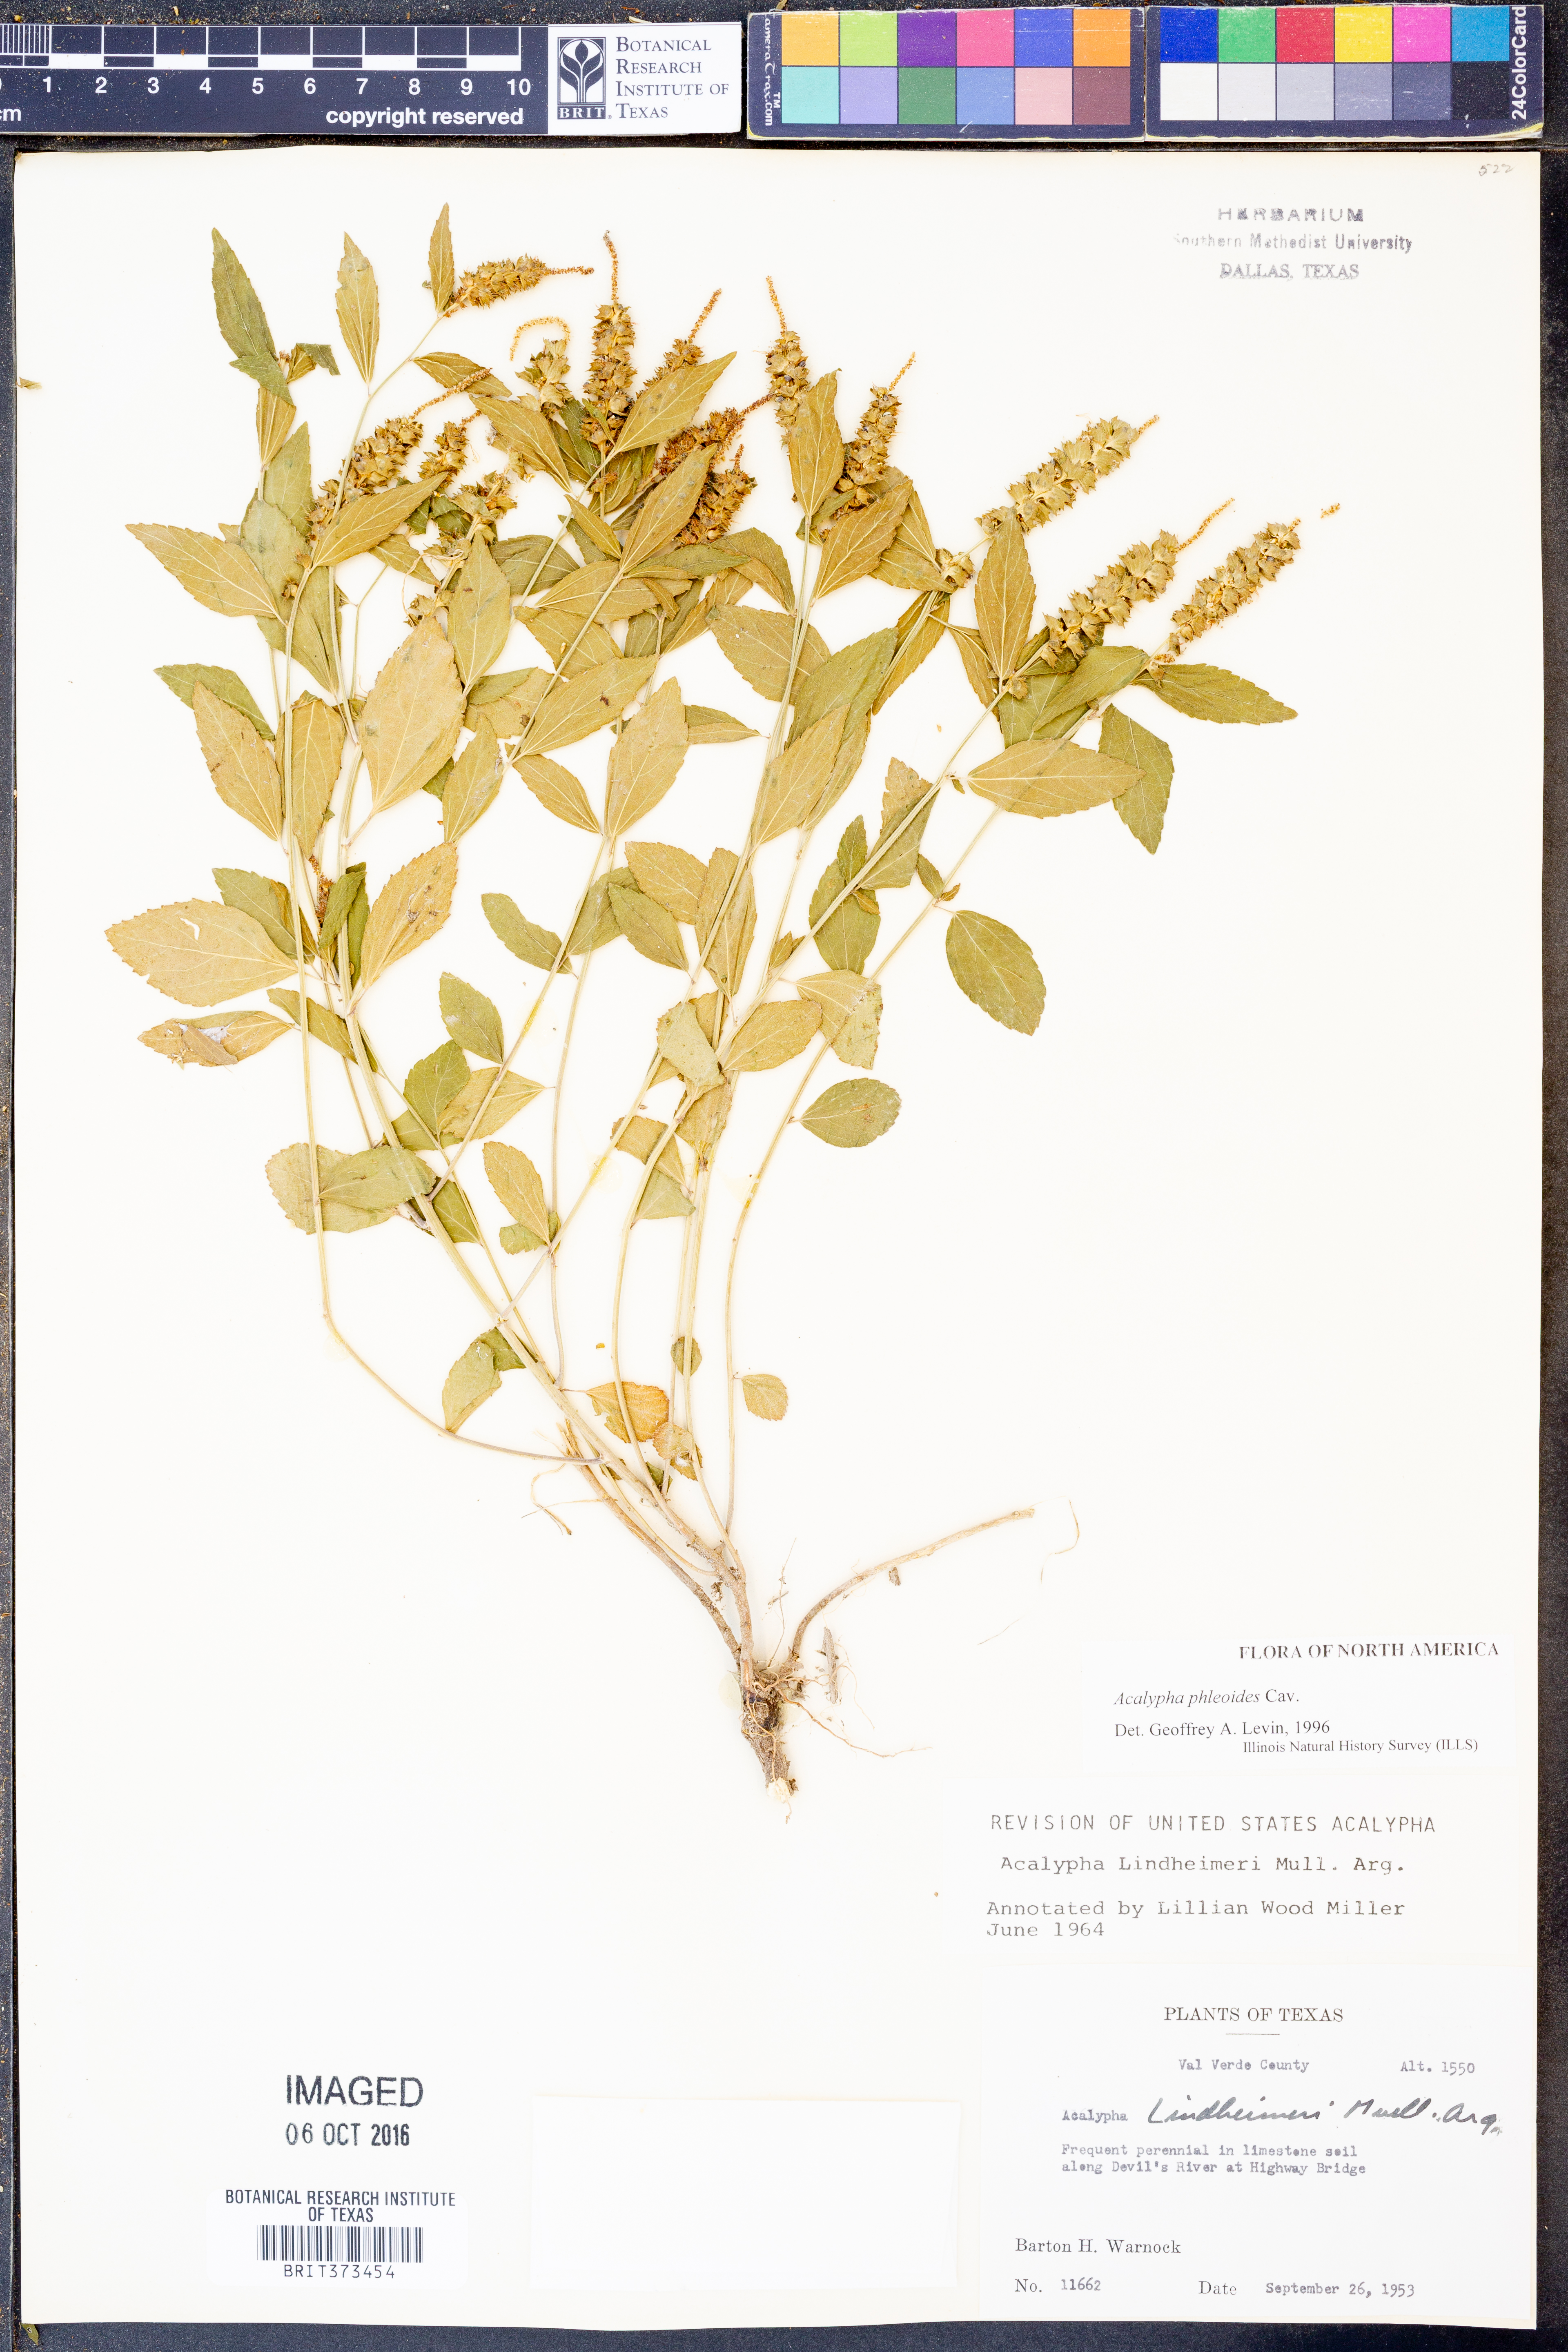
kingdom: Plantae
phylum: Tracheophyta
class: Magnoliopsida
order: Malpighiales
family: Euphorbiaceae
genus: Acalypha
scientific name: Acalypha phleoides
